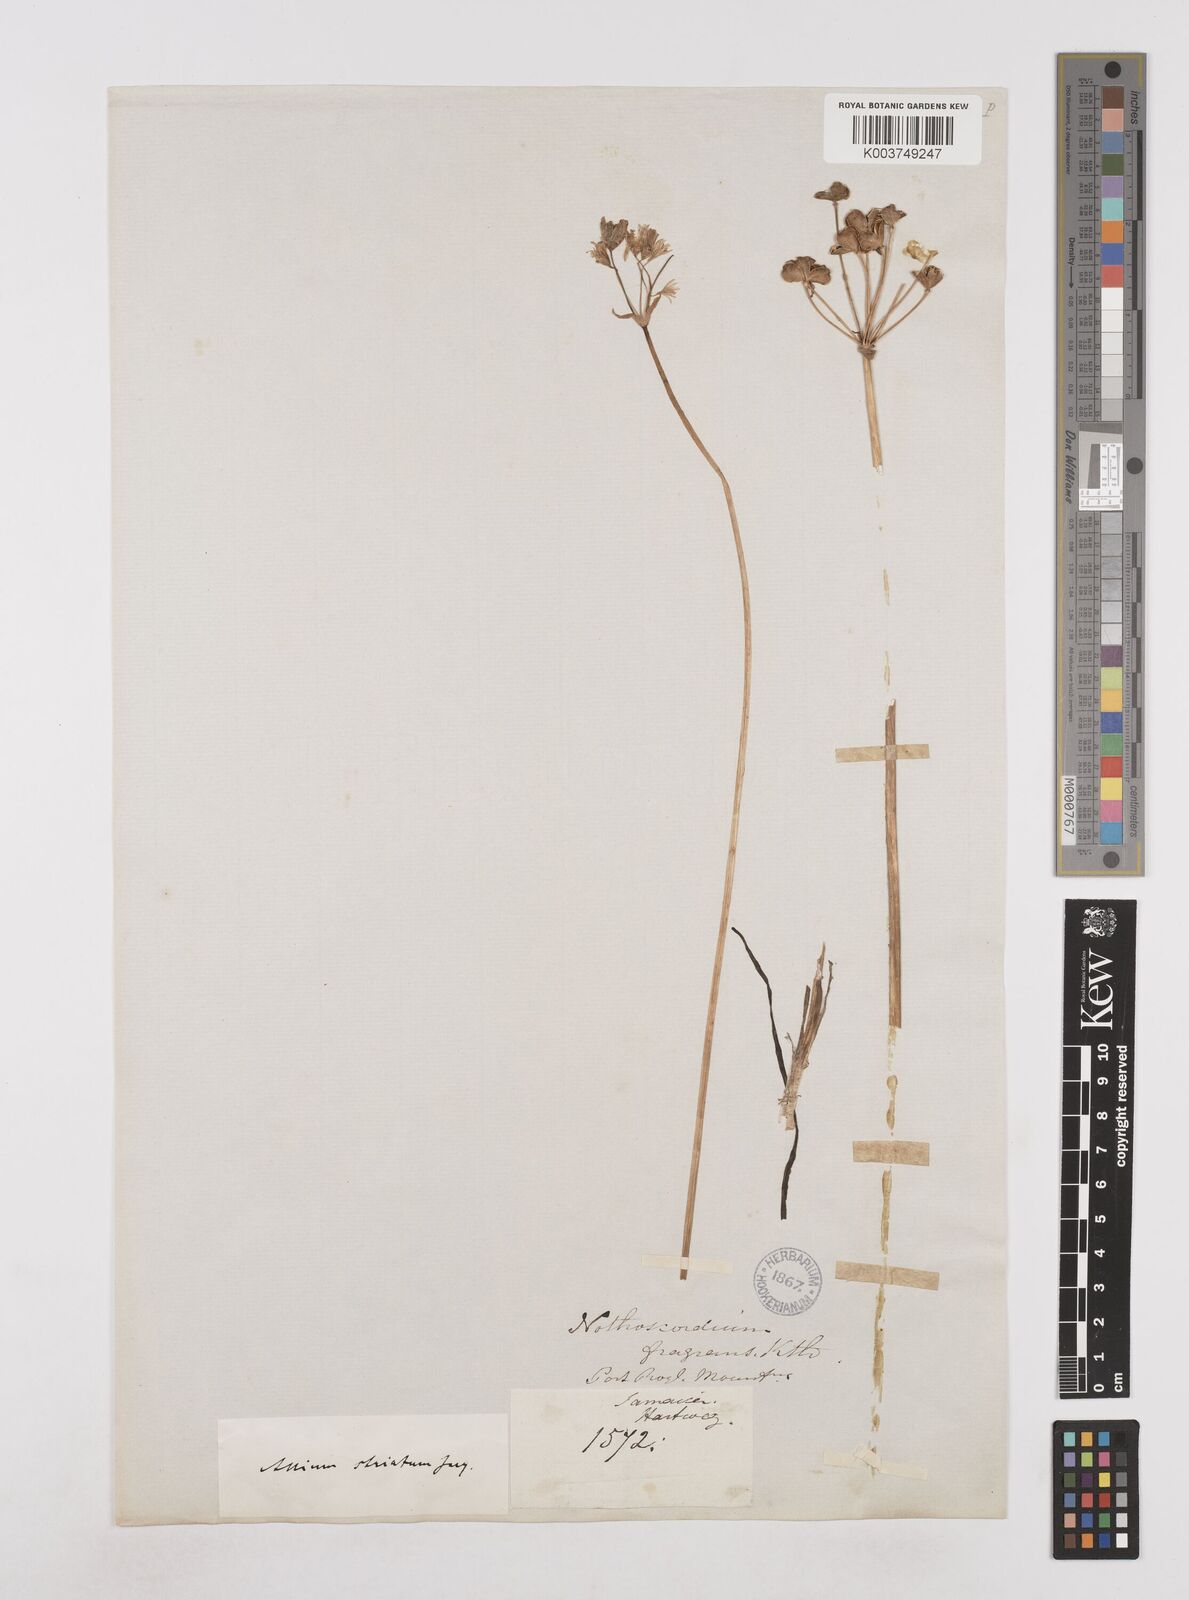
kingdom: Plantae
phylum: Tracheophyta
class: Liliopsida
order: Asparagales
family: Amaryllidaceae
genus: Allium
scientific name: Allium neapolitanum
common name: Neapolitan garlic
